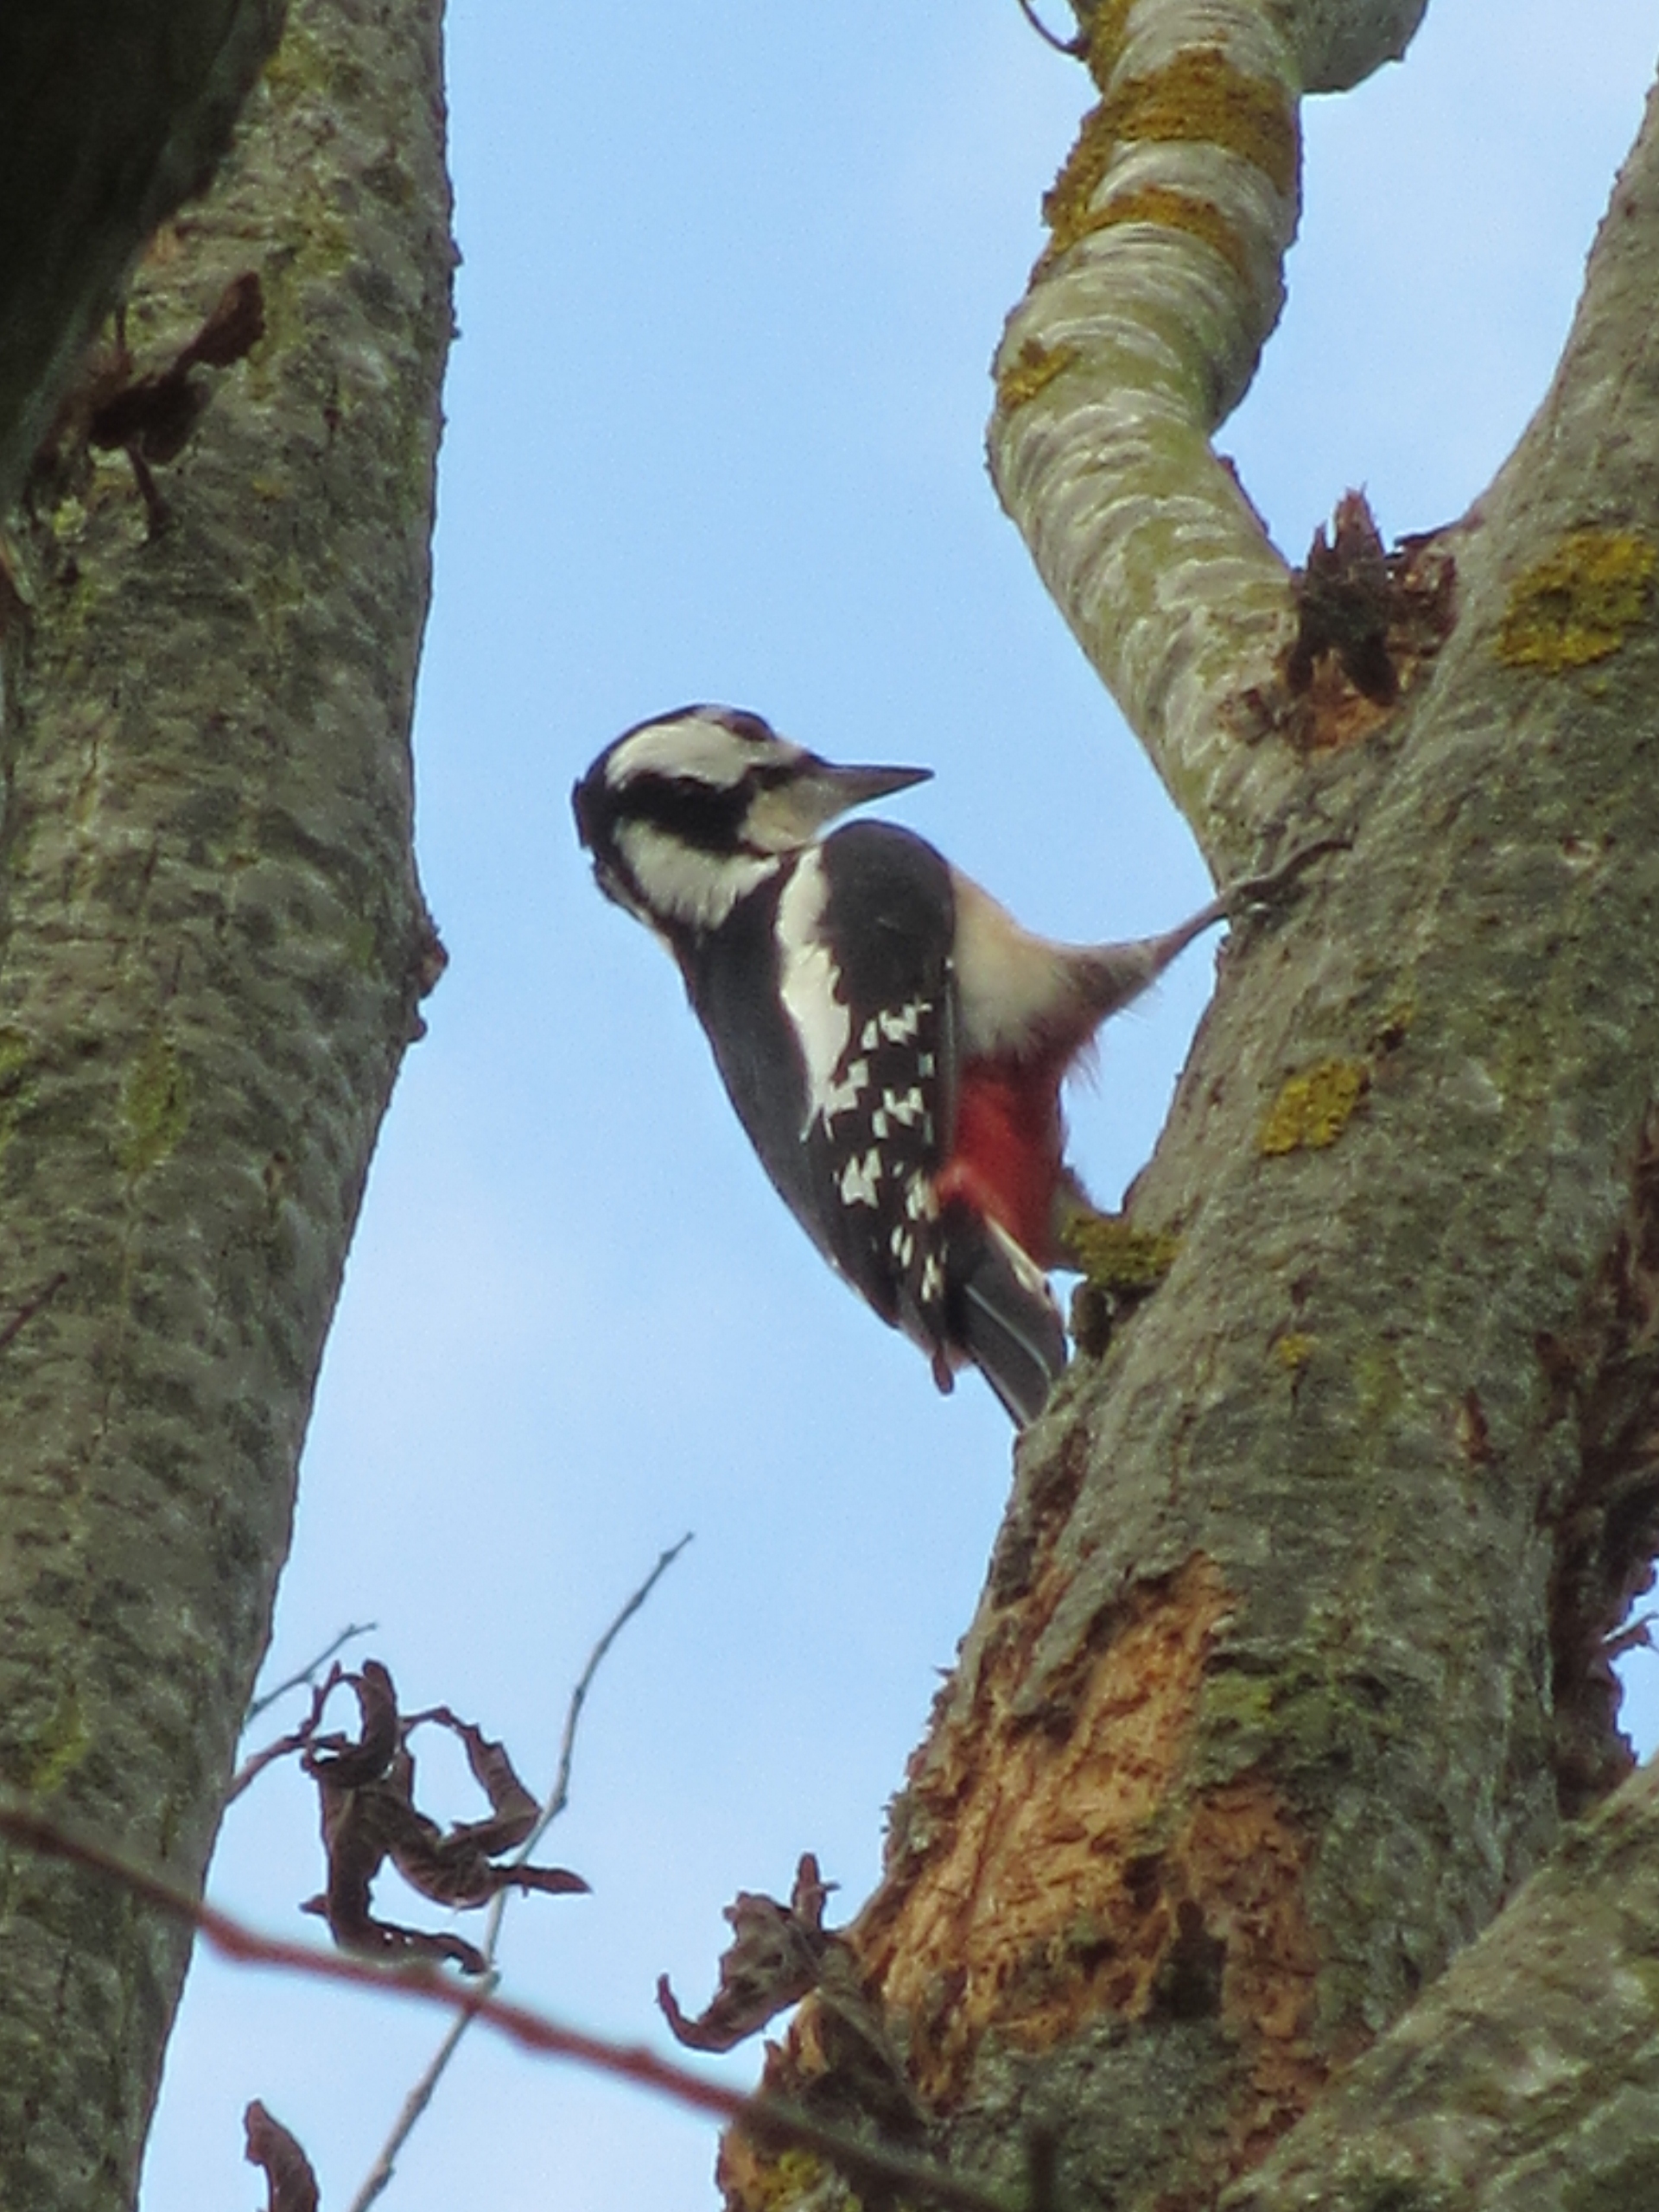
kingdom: Animalia
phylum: Chordata
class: Aves
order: Piciformes
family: Picidae
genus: Dendrocopos
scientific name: Dendrocopos major
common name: Stor flagspætte
